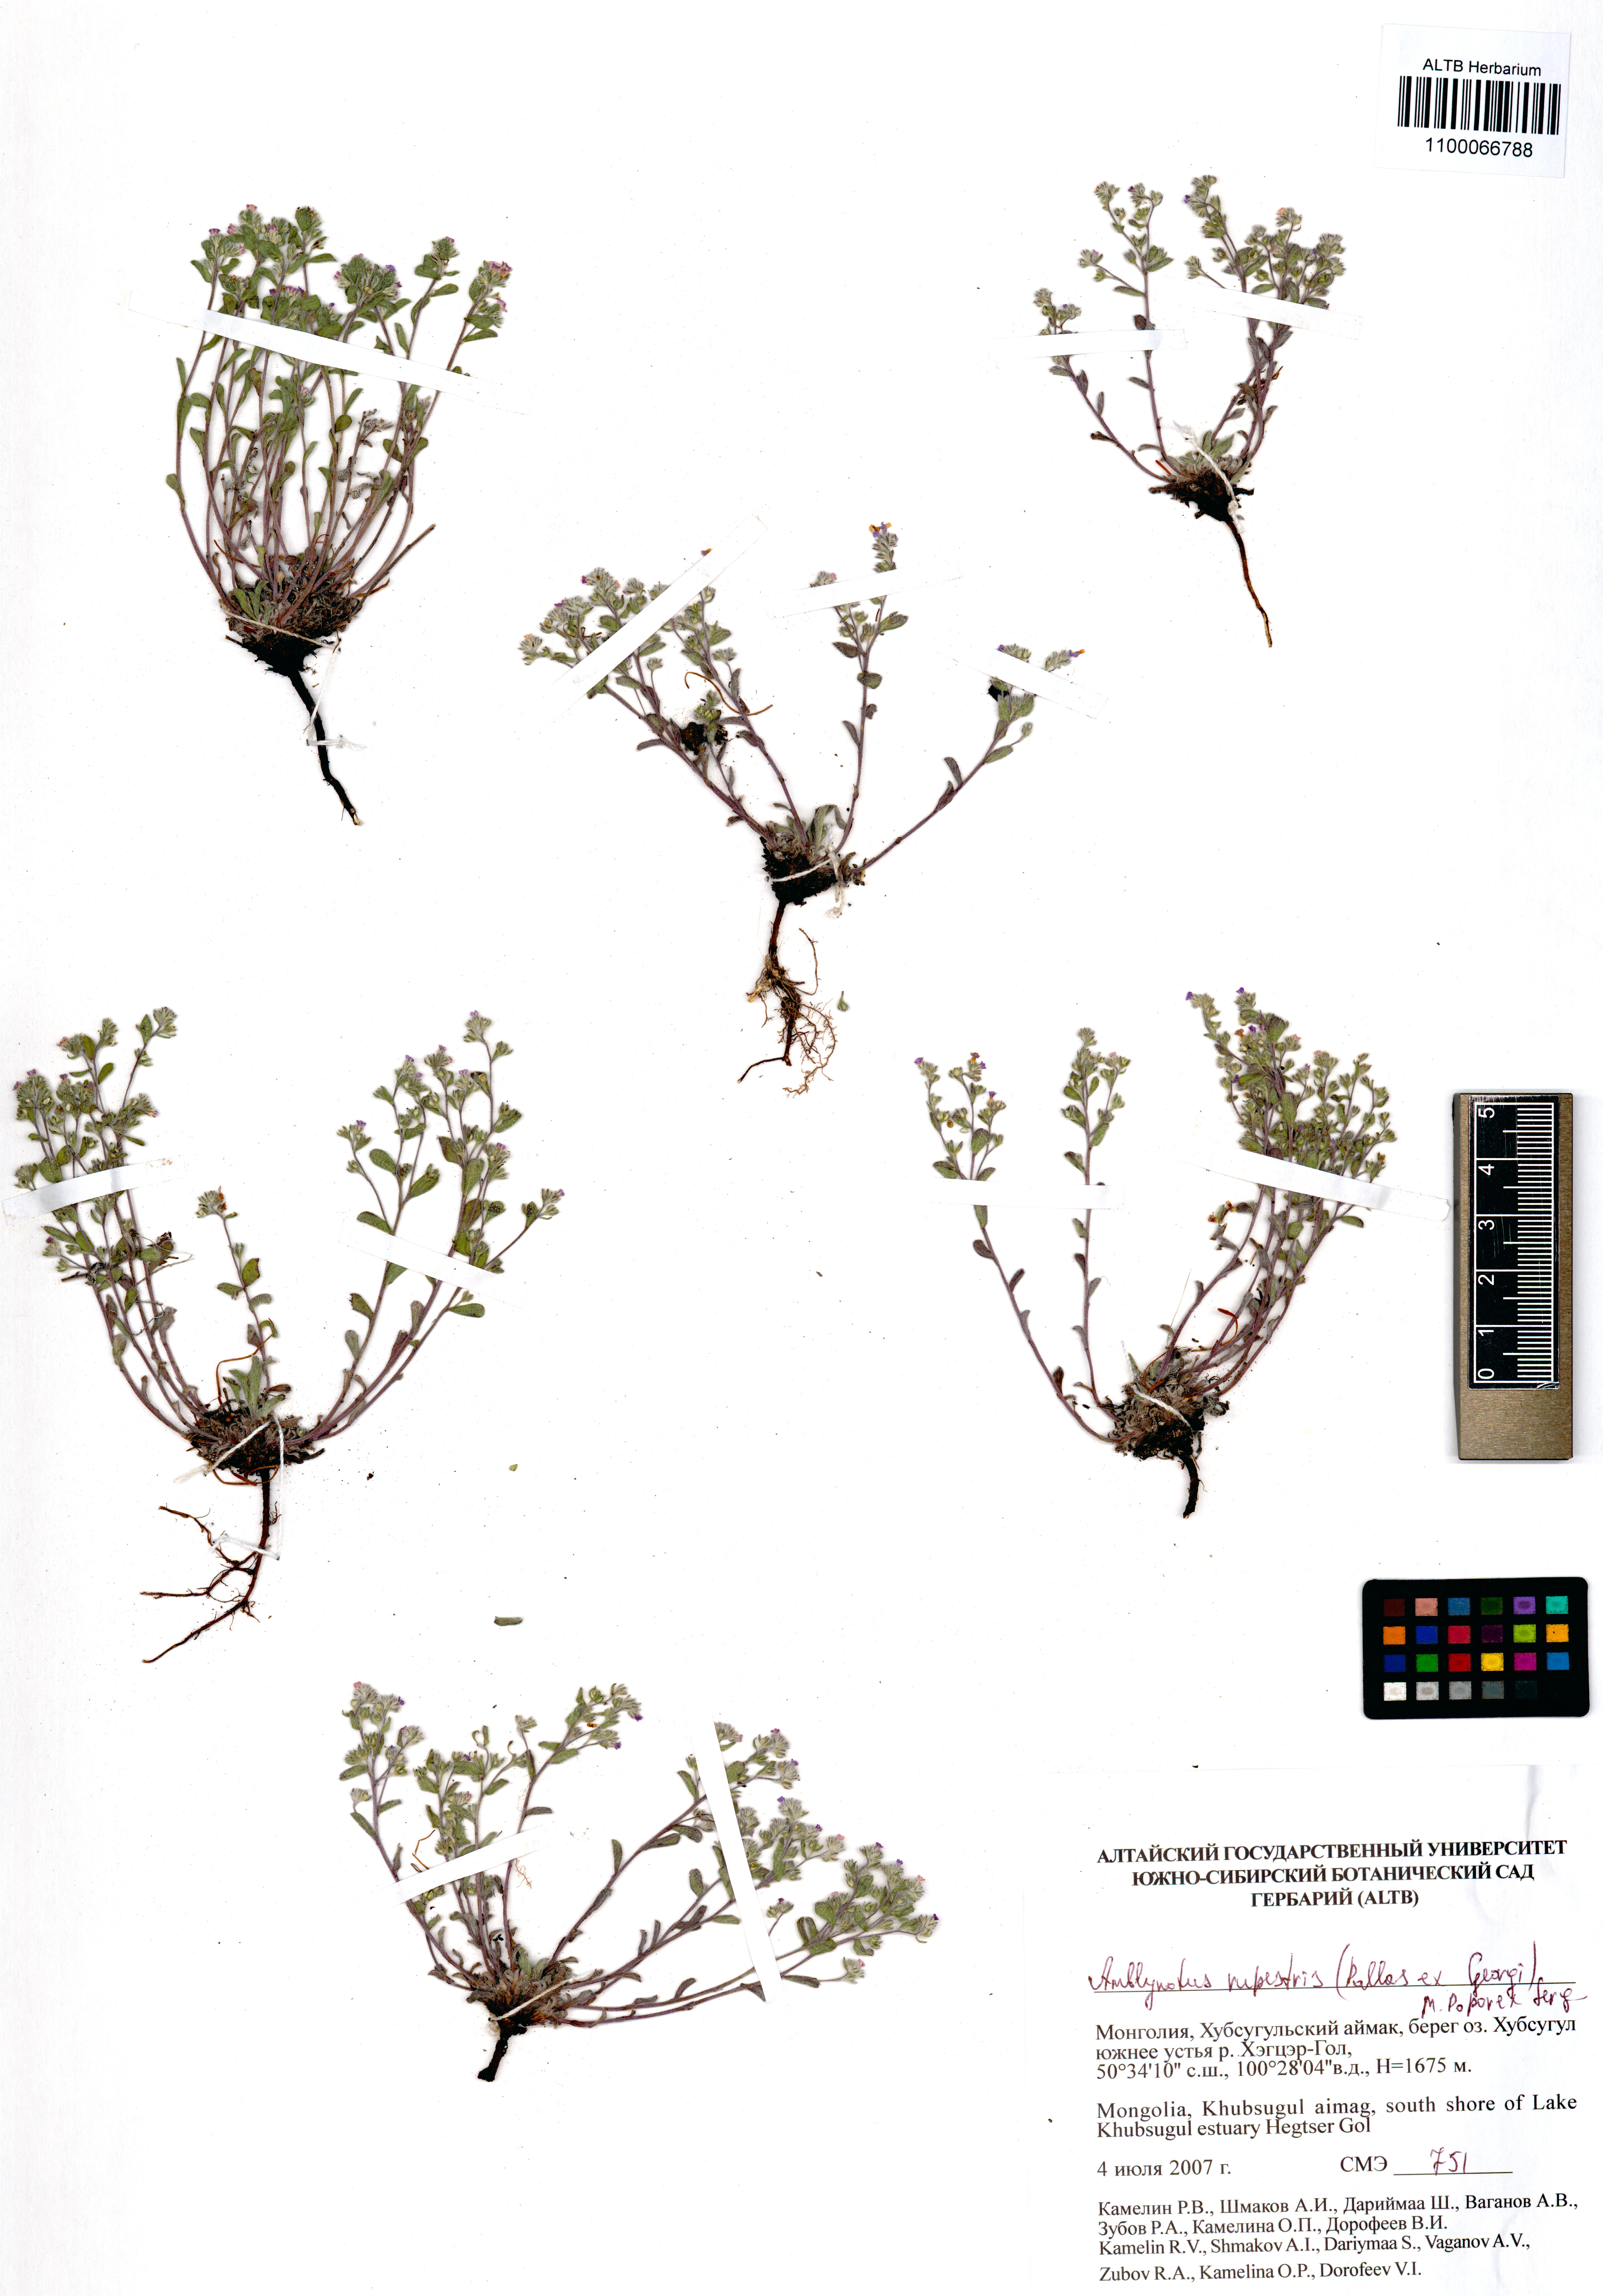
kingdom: Plantae
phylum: Tracheophyta
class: Magnoliopsida
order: Boraginales
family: Boraginaceae
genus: Eritrichium
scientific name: Eritrichium rupestre
